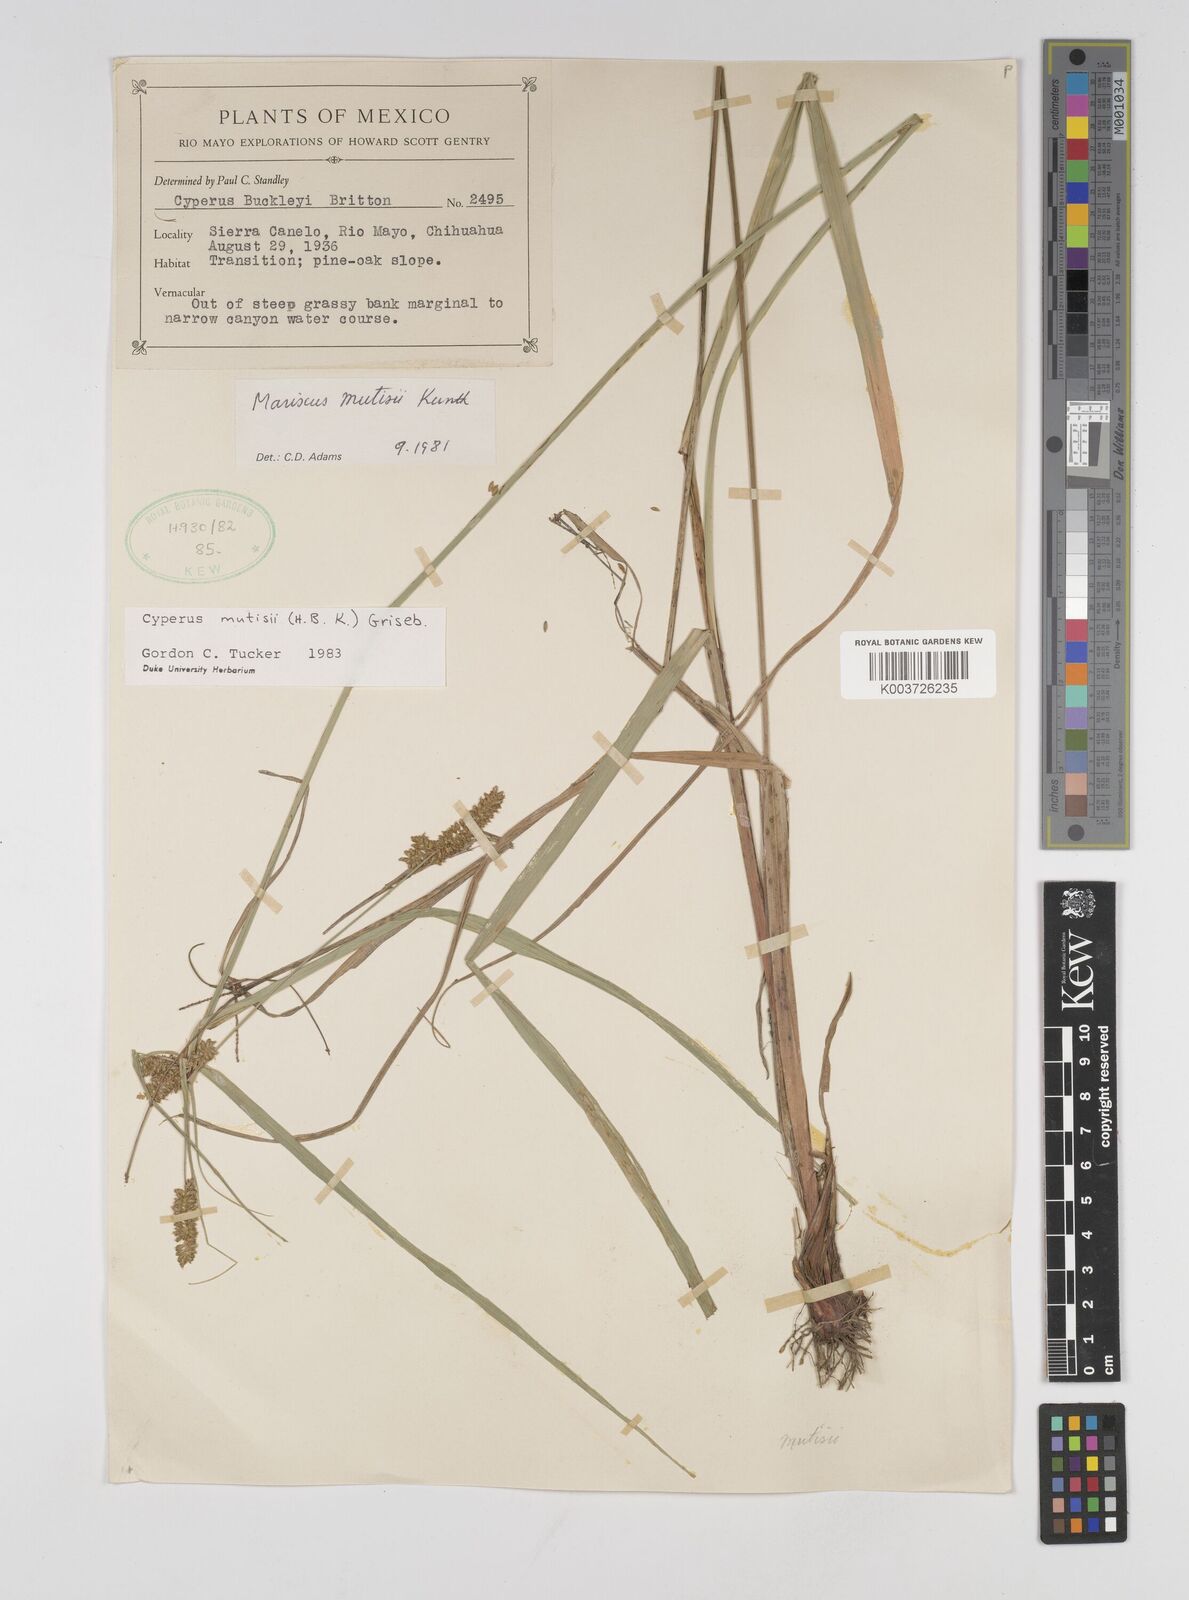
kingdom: Plantae
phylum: Tracheophyta
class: Liliopsida
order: Poales
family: Cyperaceae
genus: Cyperus
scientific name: Cyperus mutisii
